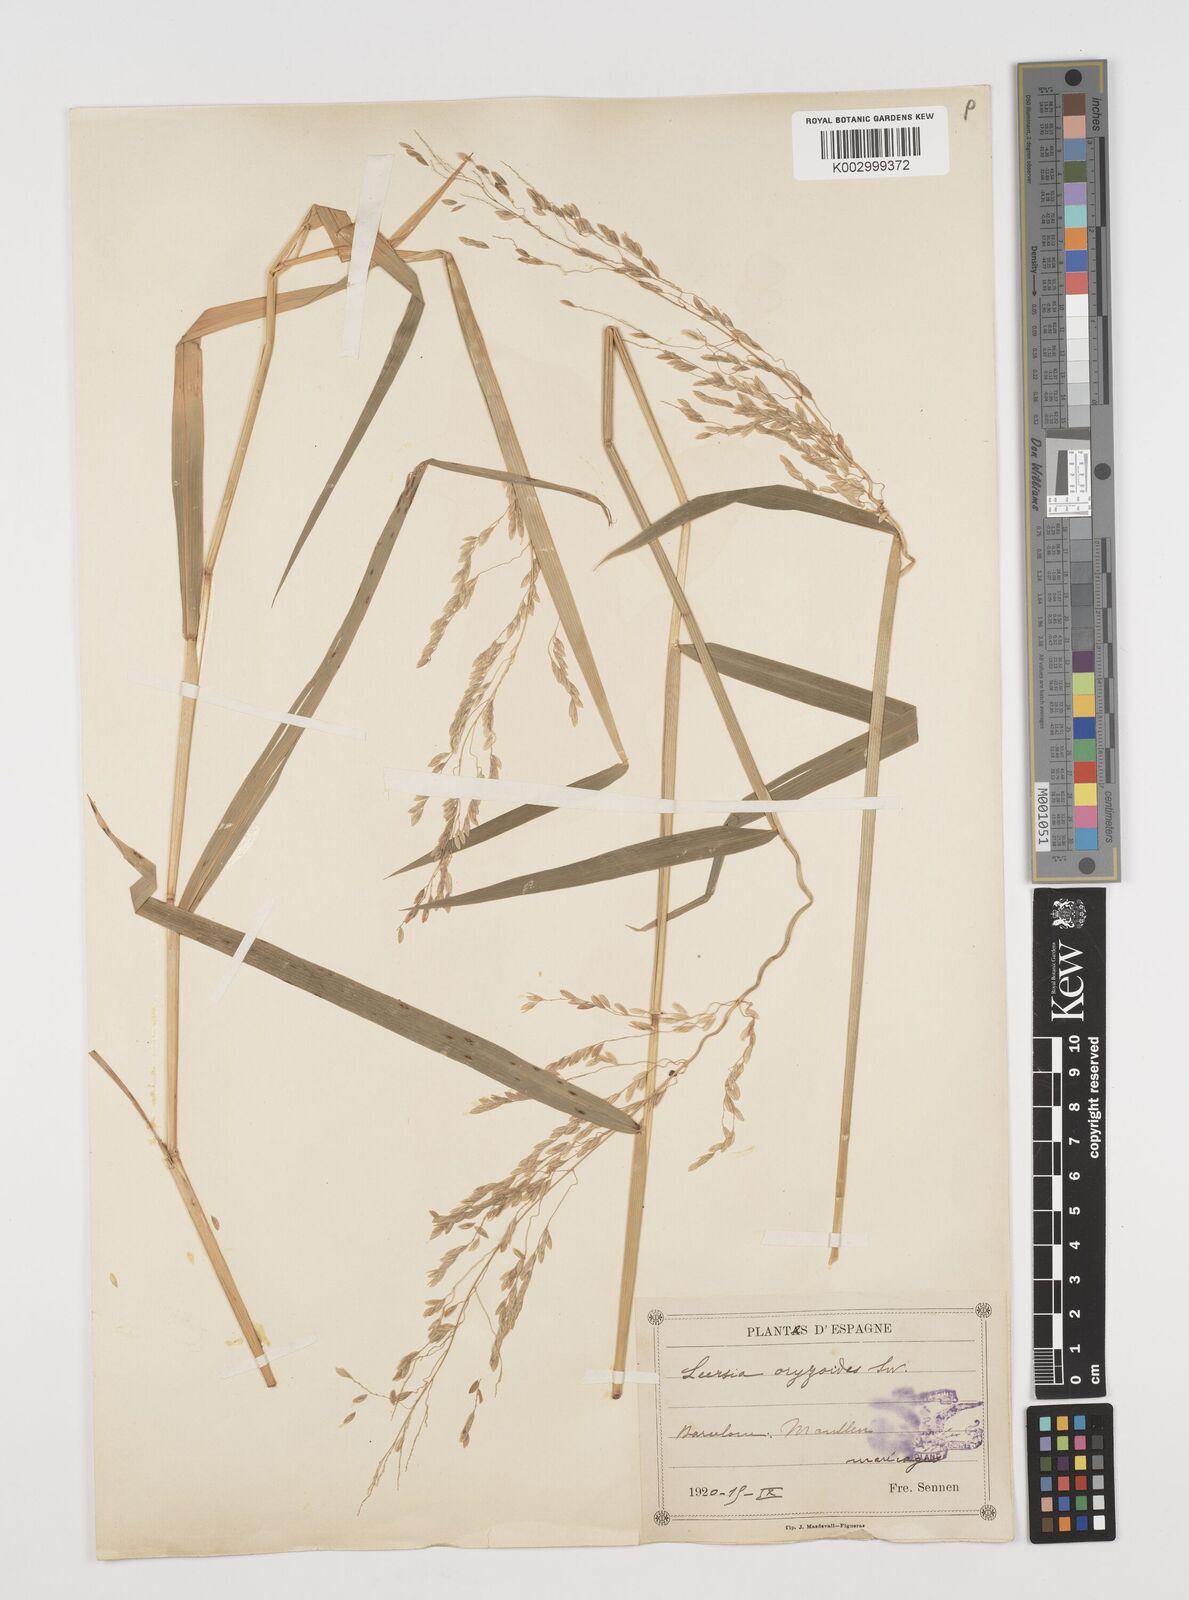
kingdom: Plantae
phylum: Tracheophyta
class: Liliopsida
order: Poales
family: Poaceae
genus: Leersia
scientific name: Leersia oryzoides
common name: Cut-grass
